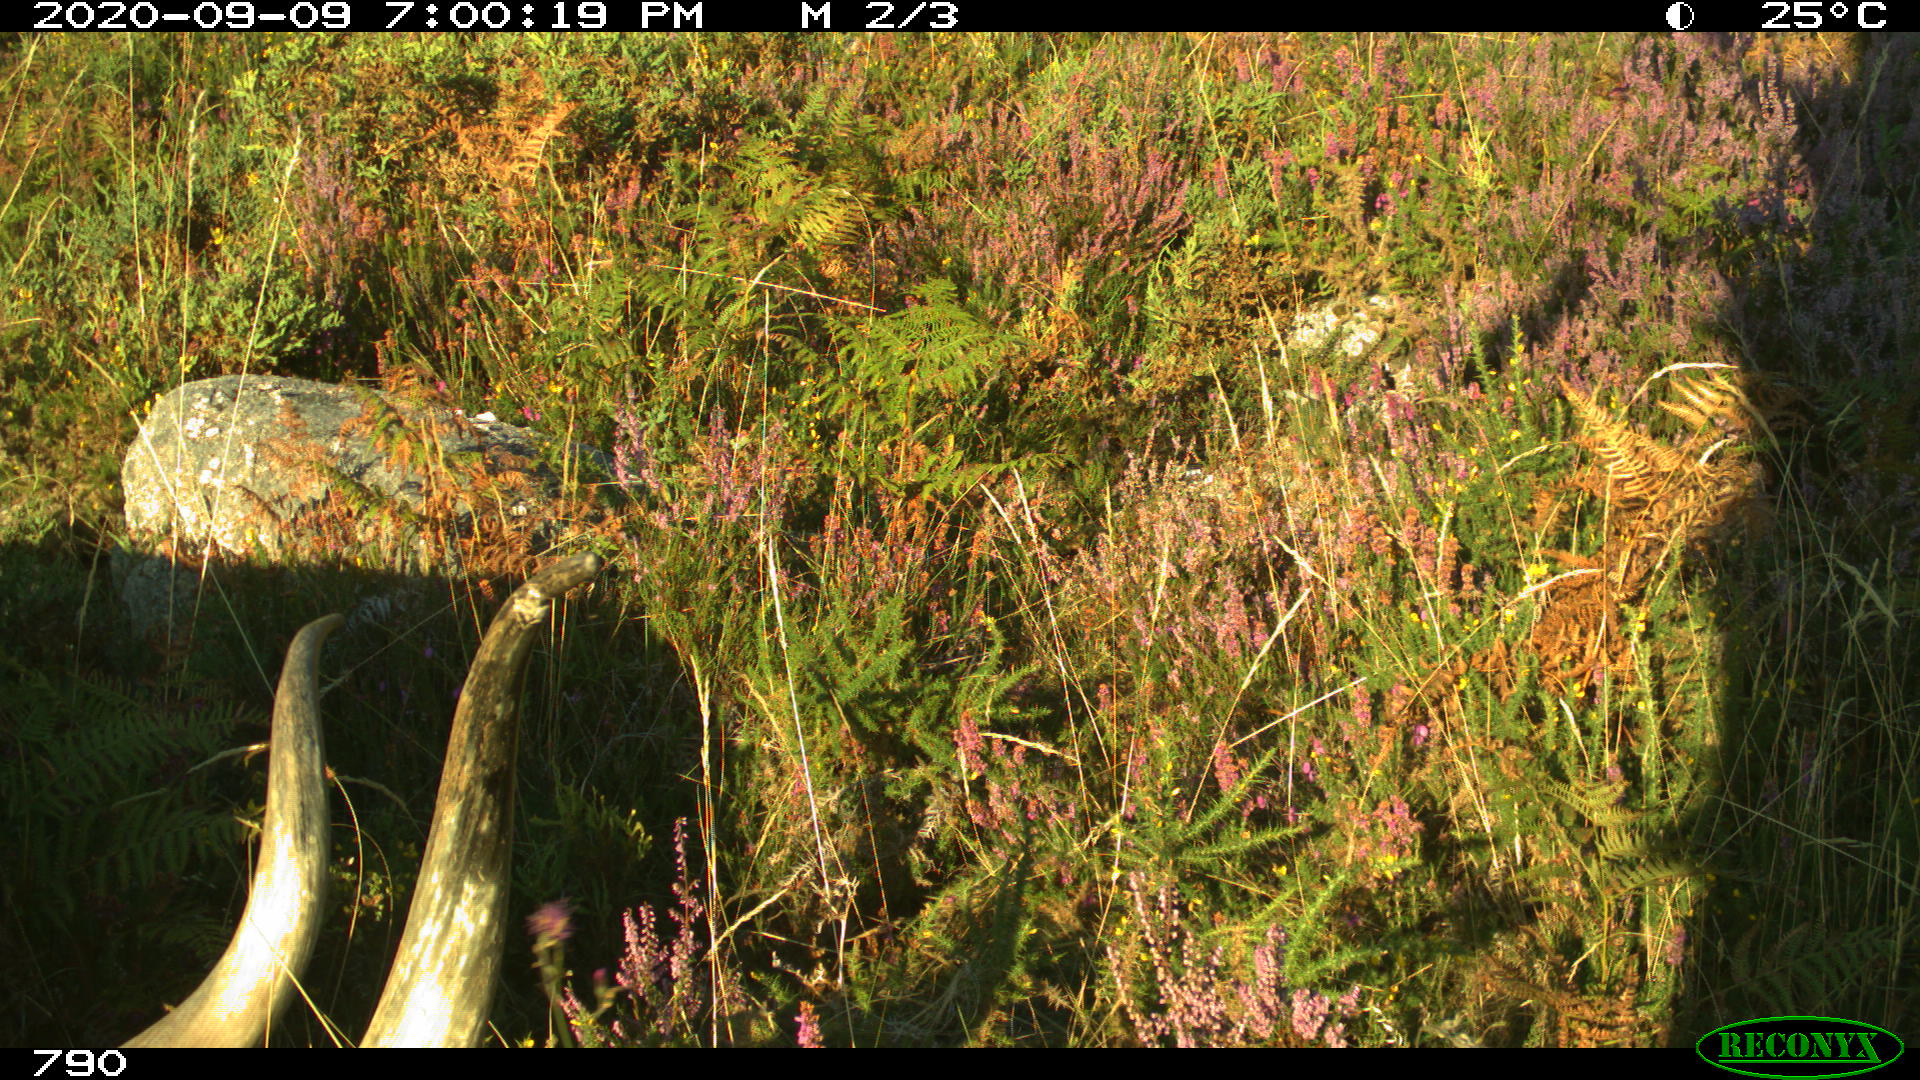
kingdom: Animalia
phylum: Chordata
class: Mammalia
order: Artiodactyla
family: Bovidae
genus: Bos
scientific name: Bos taurus
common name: Domesticated cattle
